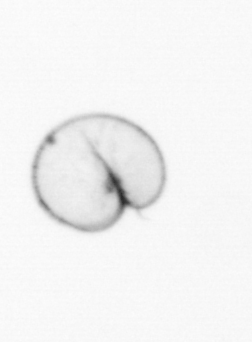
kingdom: Chromista
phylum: Myzozoa
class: Dinophyceae
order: Noctilucales
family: Noctilucaceae
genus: Noctiluca
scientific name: Noctiluca scintillans
